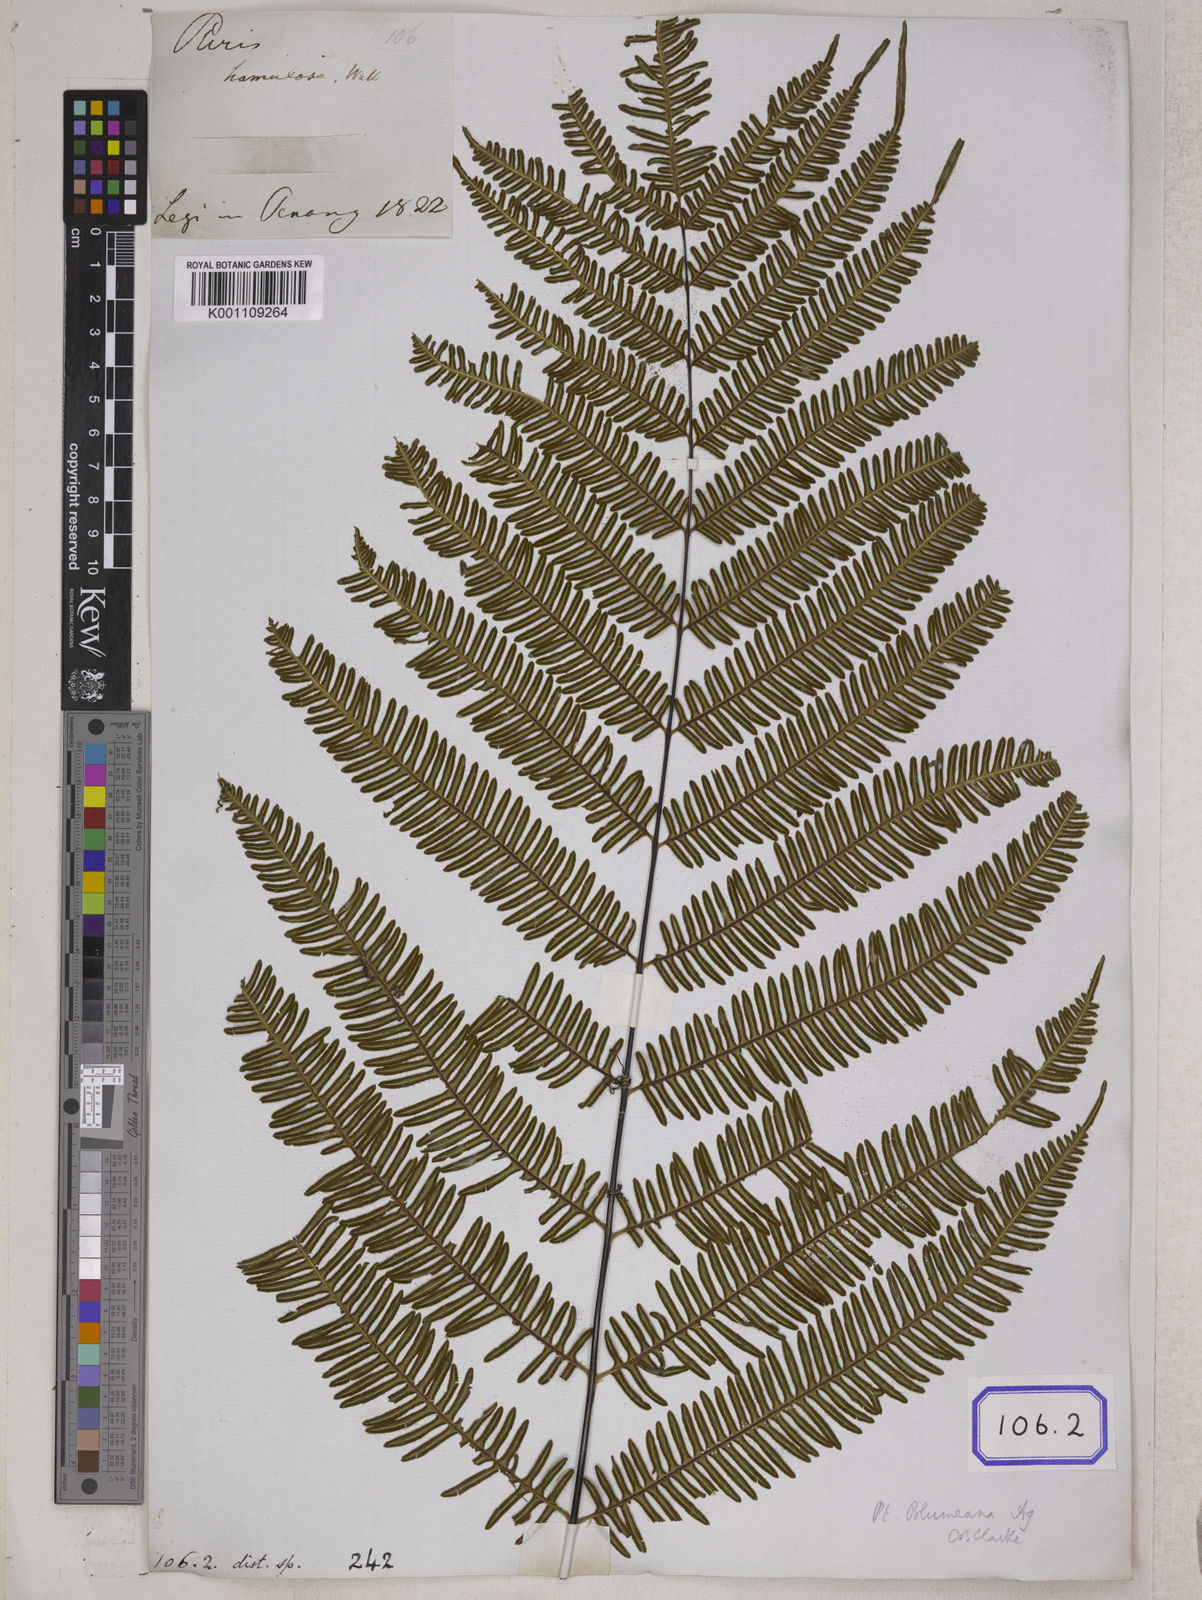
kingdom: Plantae
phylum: Tracheophyta
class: Polypodiopsida
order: Polypodiales
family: Pteridaceae
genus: Pteris
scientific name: Pteris linearis
